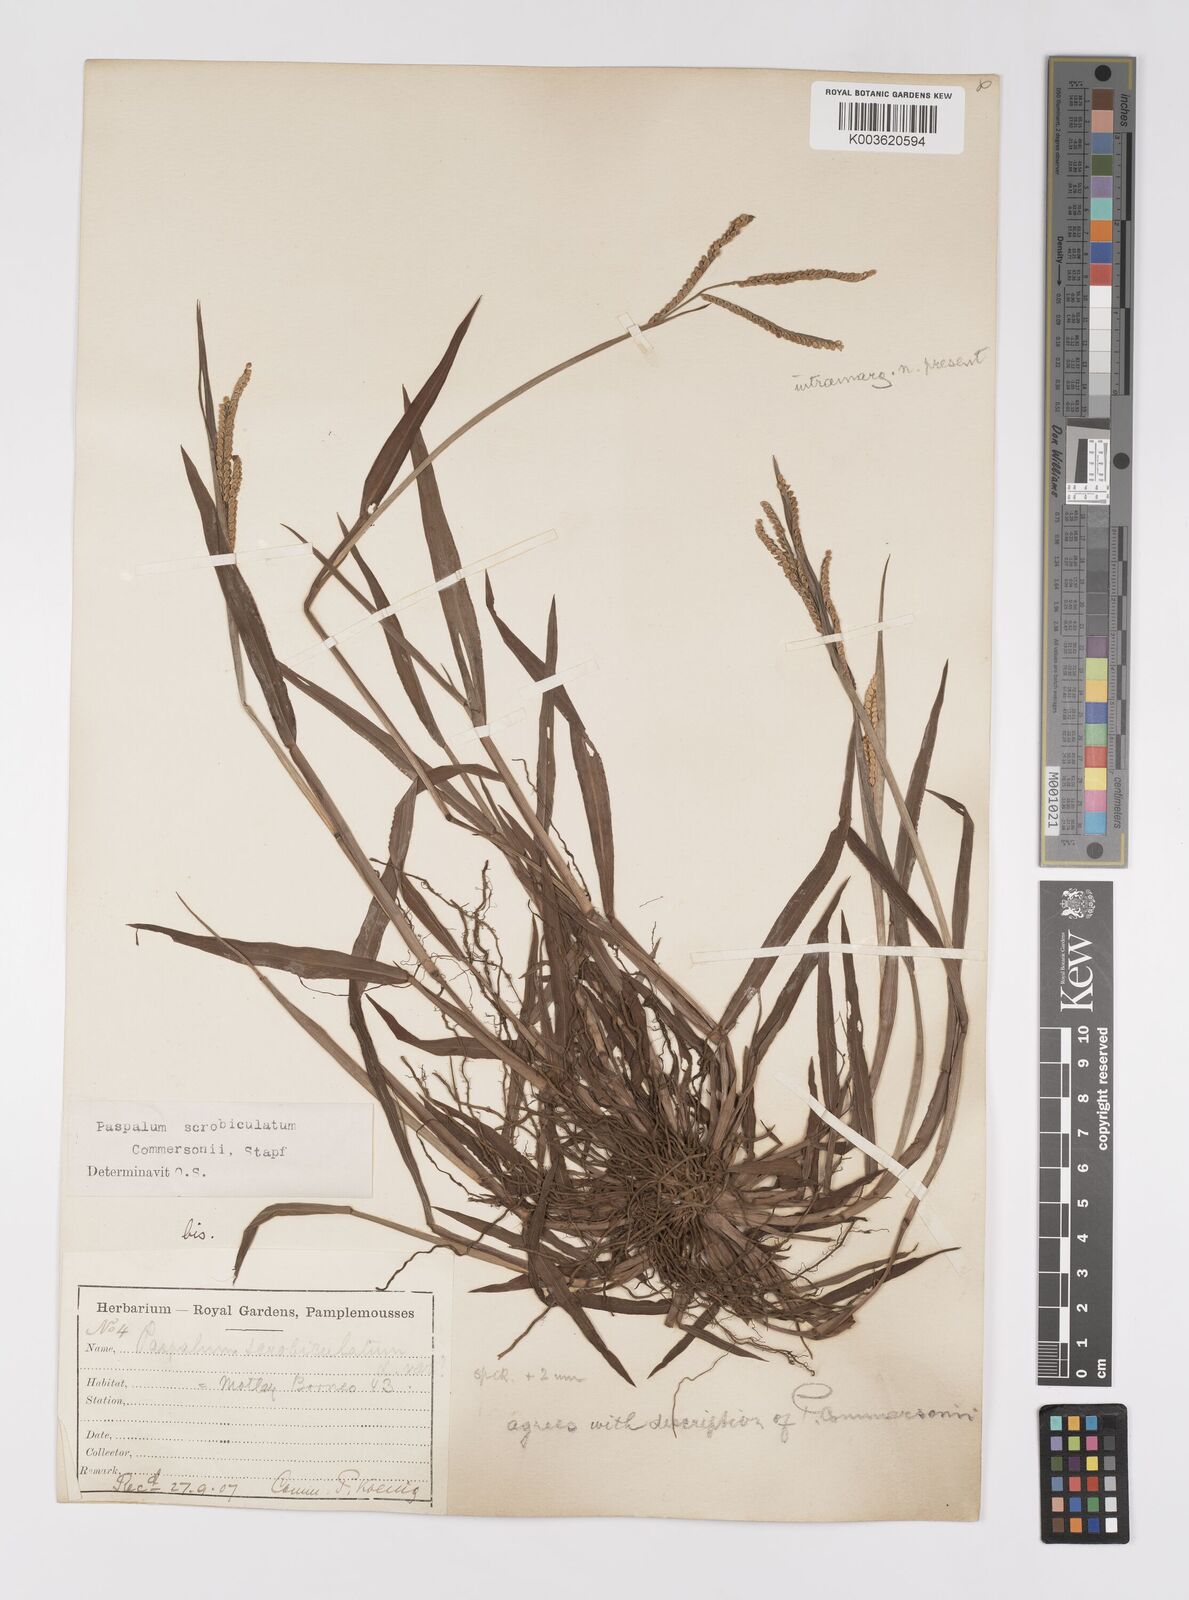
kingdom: Plantae
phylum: Tracheophyta
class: Liliopsida
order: Poales
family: Poaceae
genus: Paspalum
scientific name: Paspalum scrobiculatum
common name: Kodo millet
